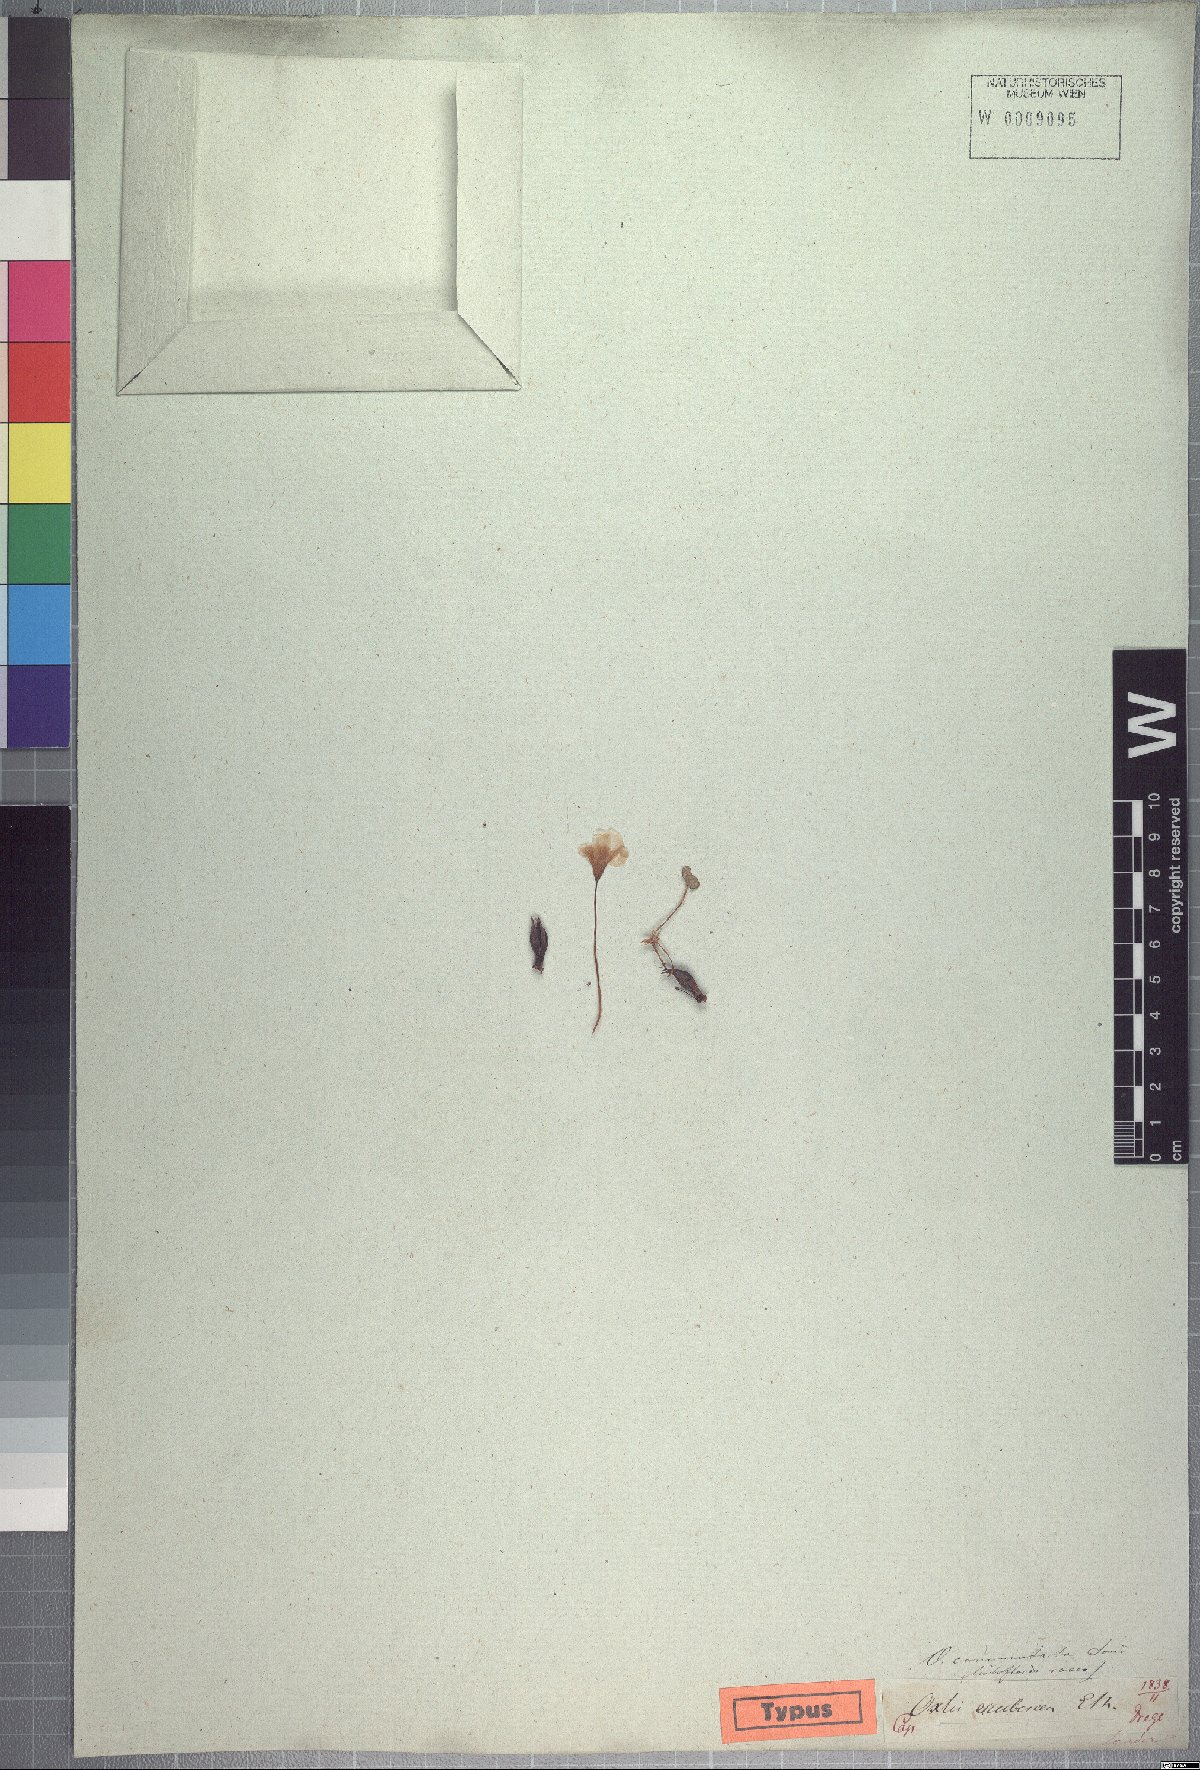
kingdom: Plantae
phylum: Tracheophyta
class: Magnoliopsida
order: Oxalidales
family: Oxalidaceae
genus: Oxalis
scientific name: Oxalis commutata
